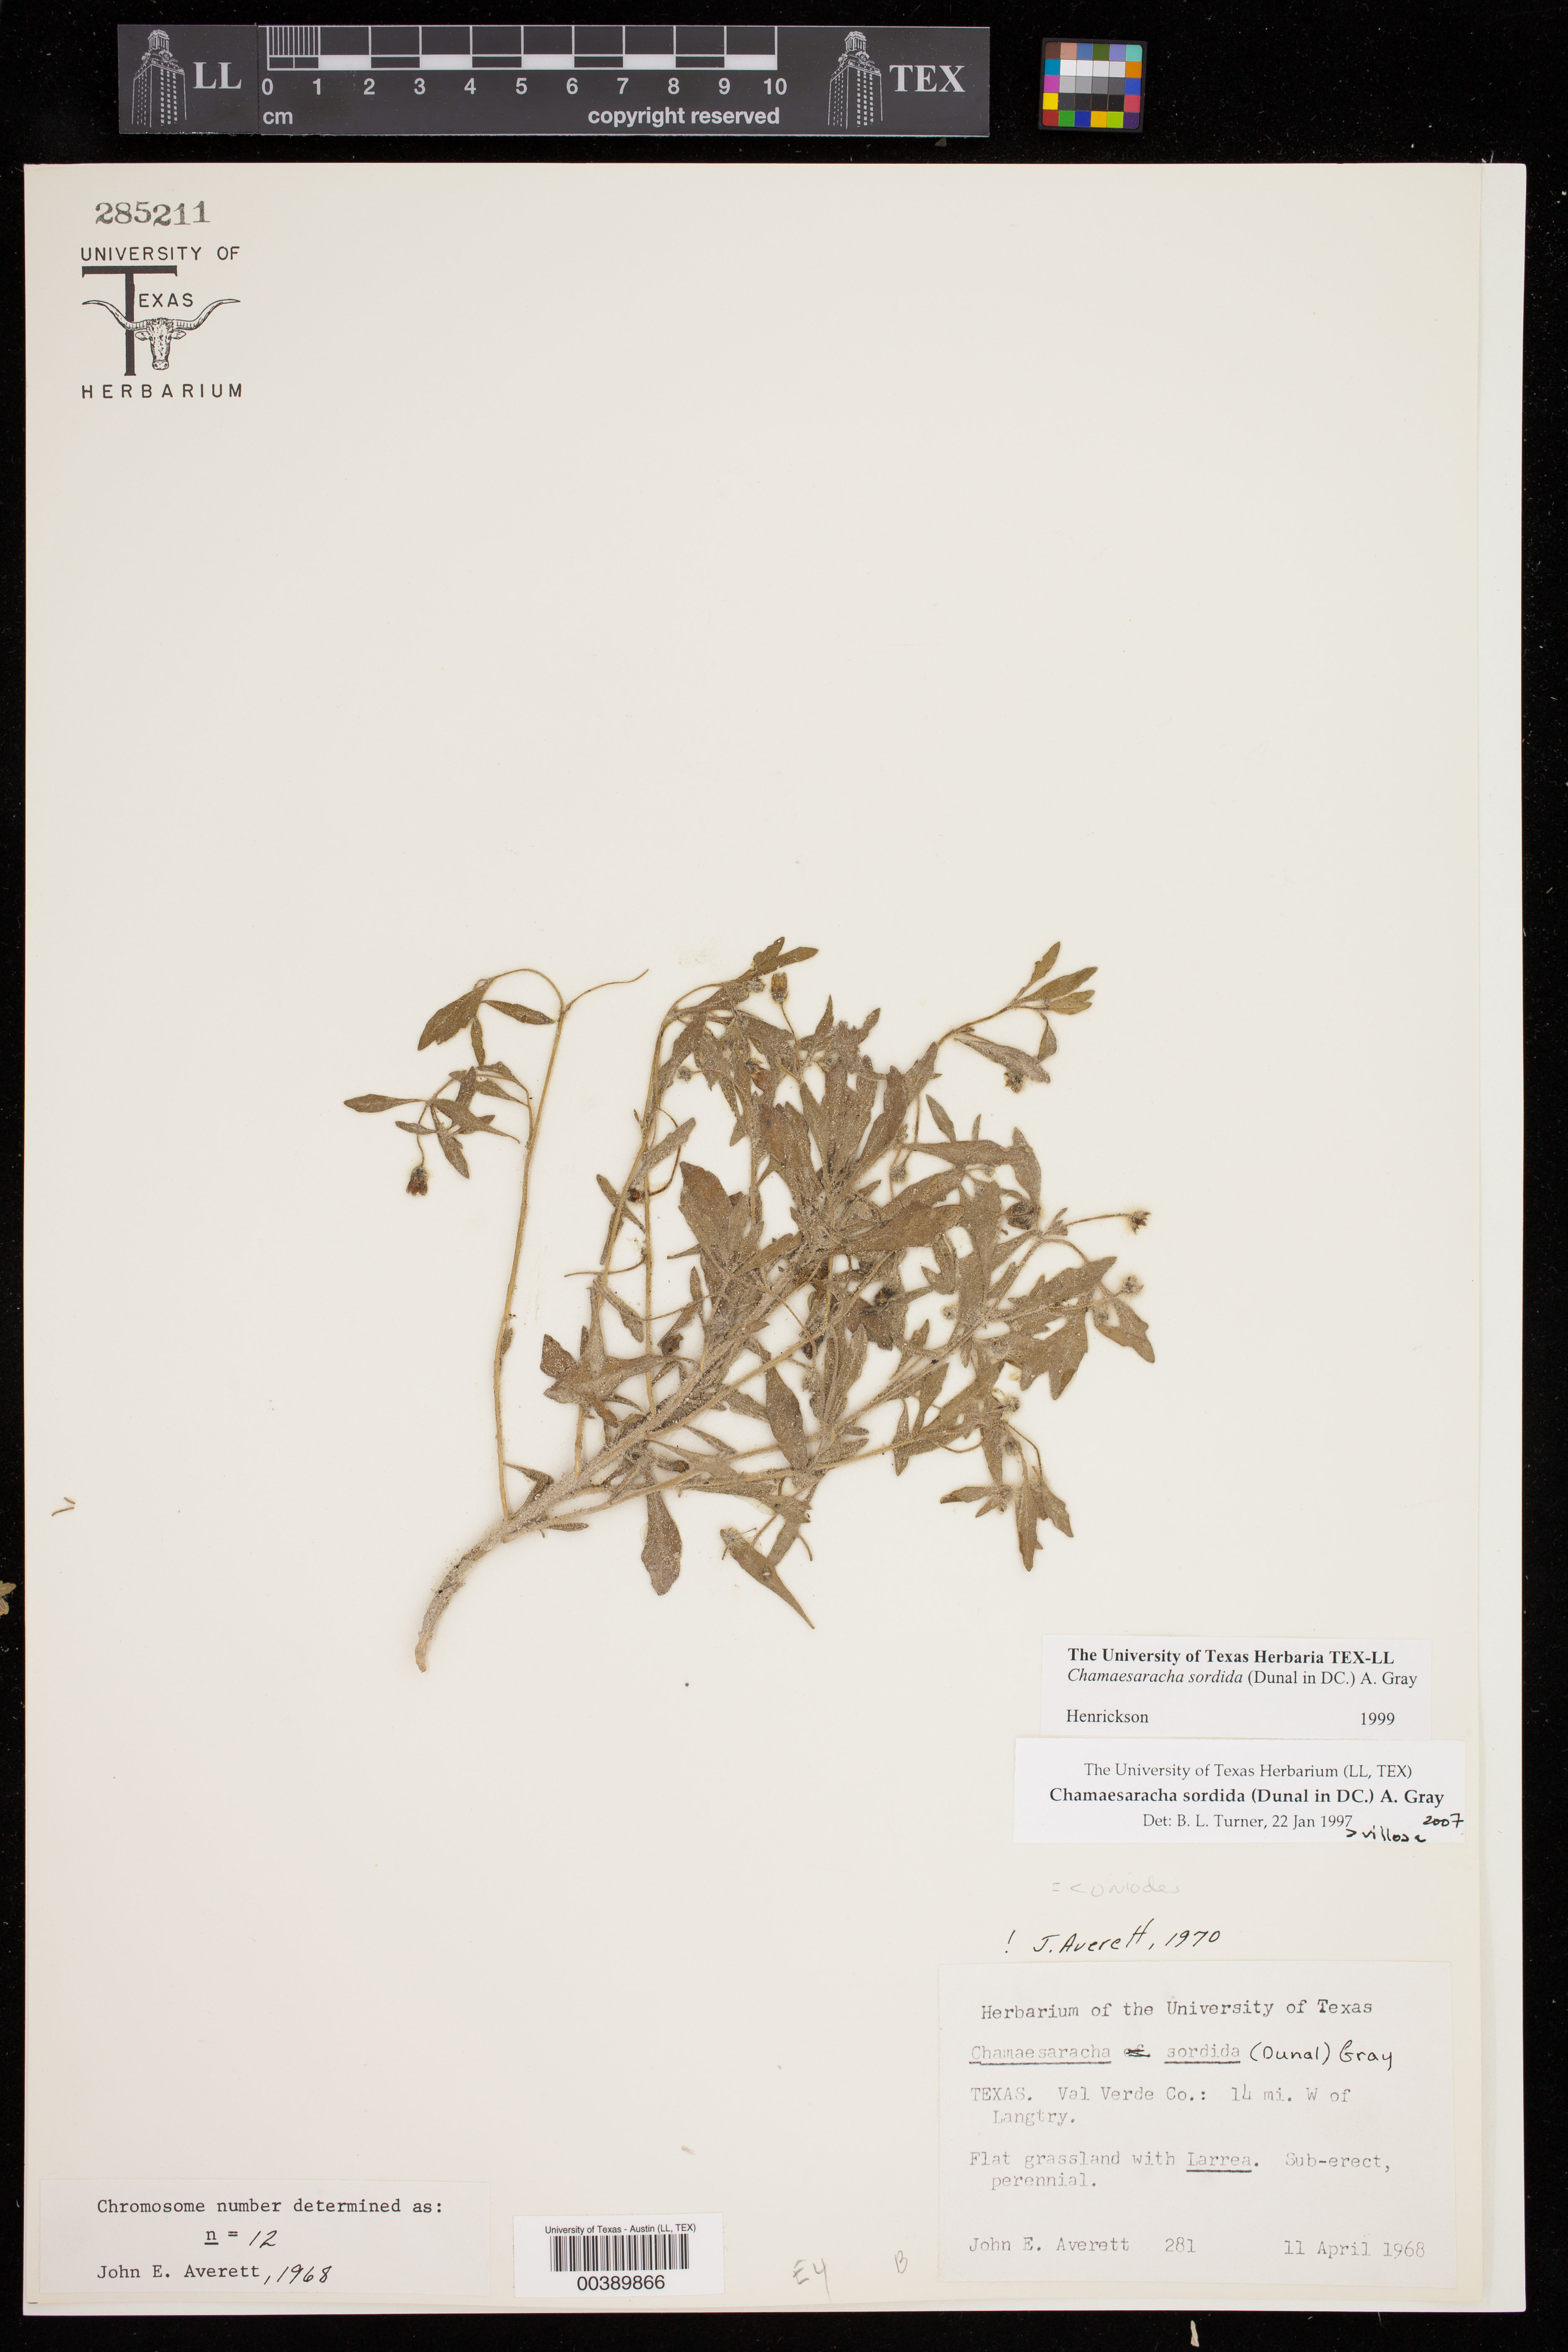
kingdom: Plantae
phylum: Tracheophyta
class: Magnoliopsida
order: Solanales
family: Solanaceae
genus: Chamaesaracha
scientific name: Chamaesaracha sordida
